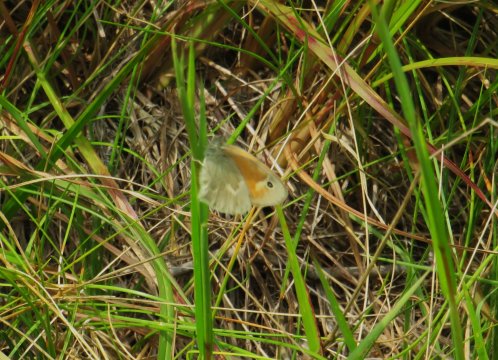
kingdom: Animalia
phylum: Arthropoda
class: Insecta
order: Lepidoptera
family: Nymphalidae
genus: Coenonympha
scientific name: Coenonympha tullia
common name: Large Heath
